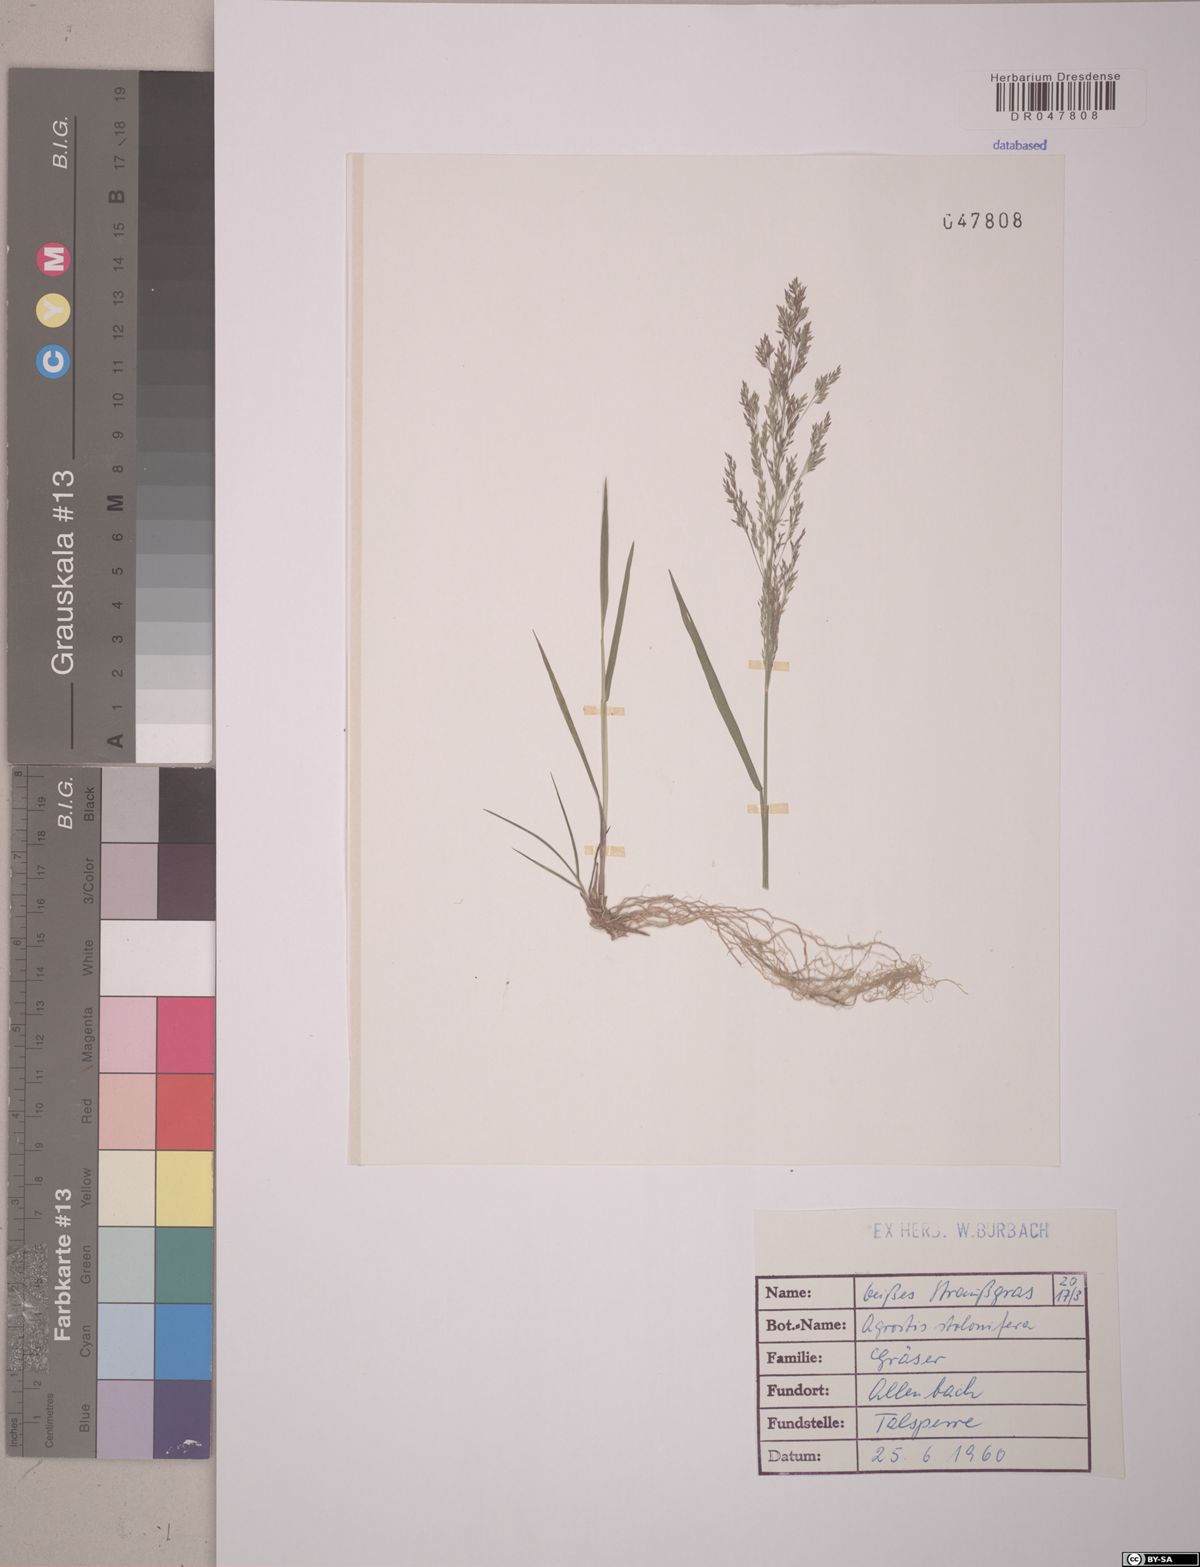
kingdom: Plantae
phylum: Tracheophyta
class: Liliopsida
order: Poales
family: Poaceae
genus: Agrostis
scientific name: Agrostis stolonifera
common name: Creeping bentgrass
